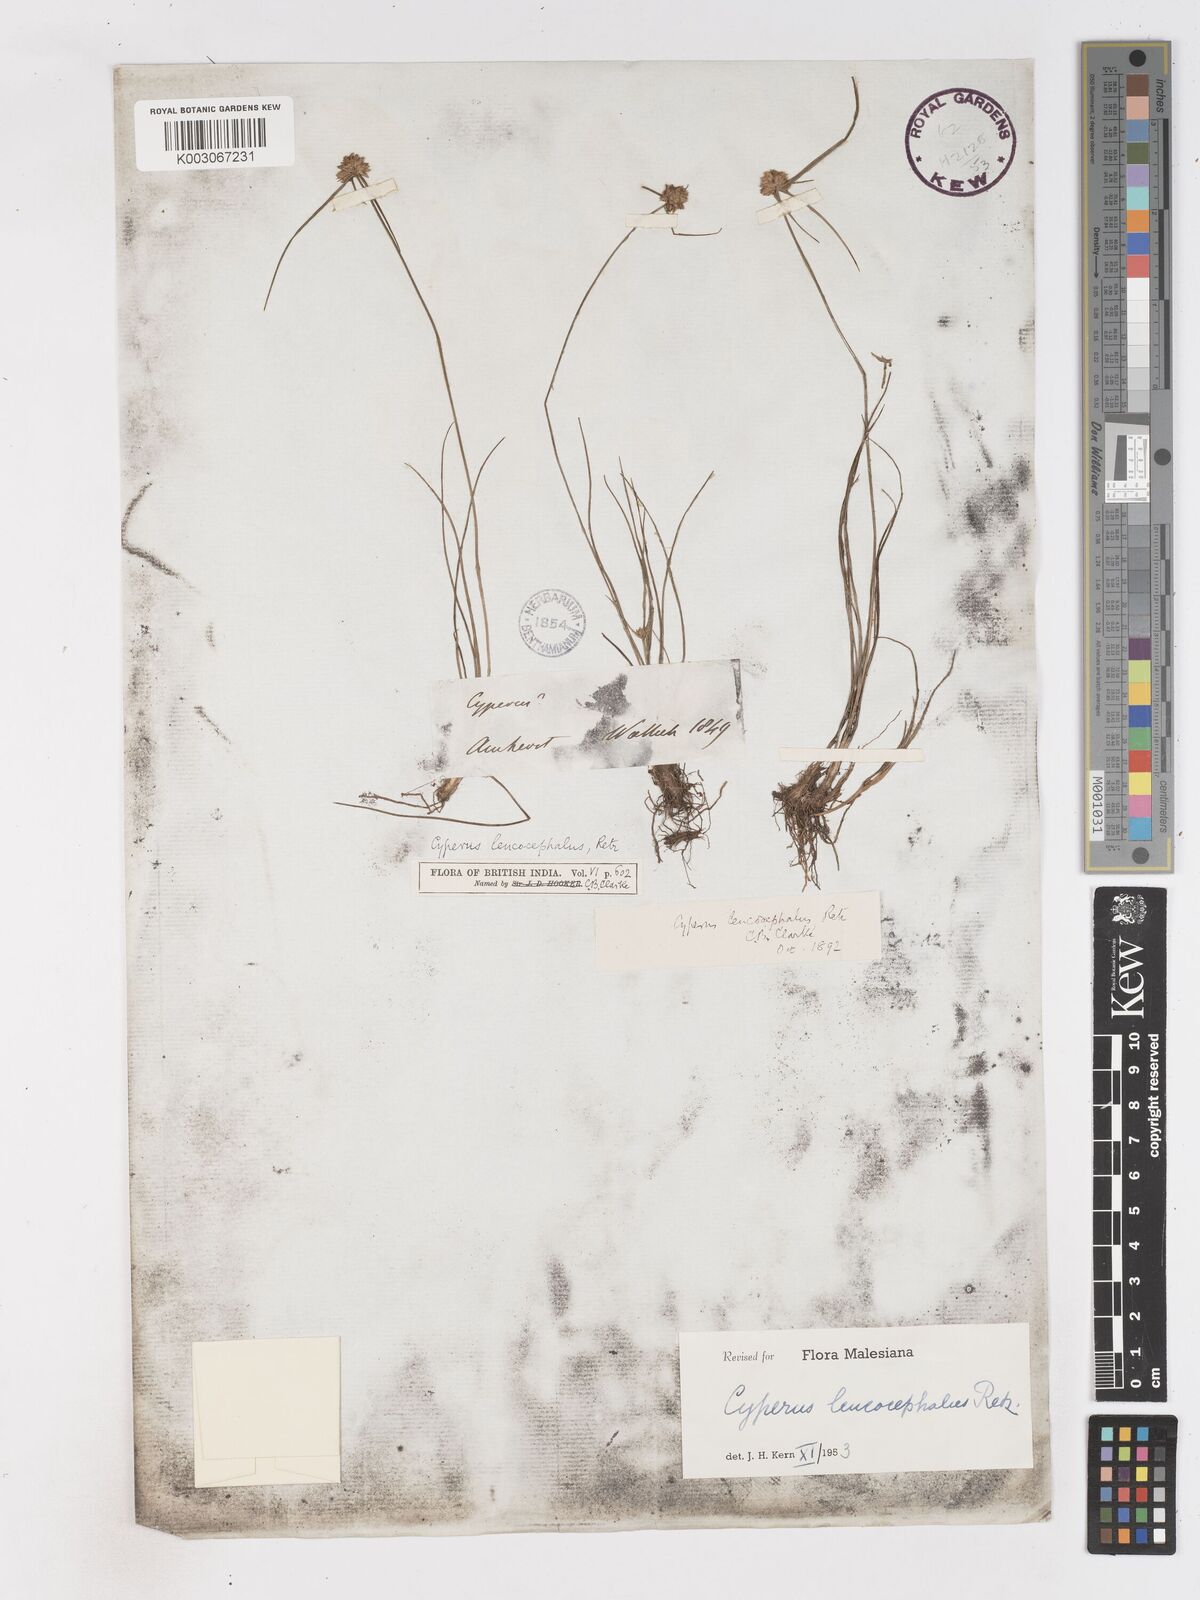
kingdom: Plantae
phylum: Tracheophyta
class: Liliopsida
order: Poales
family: Cyperaceae
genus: Cyperus
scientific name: Cyperus leucocephalus
